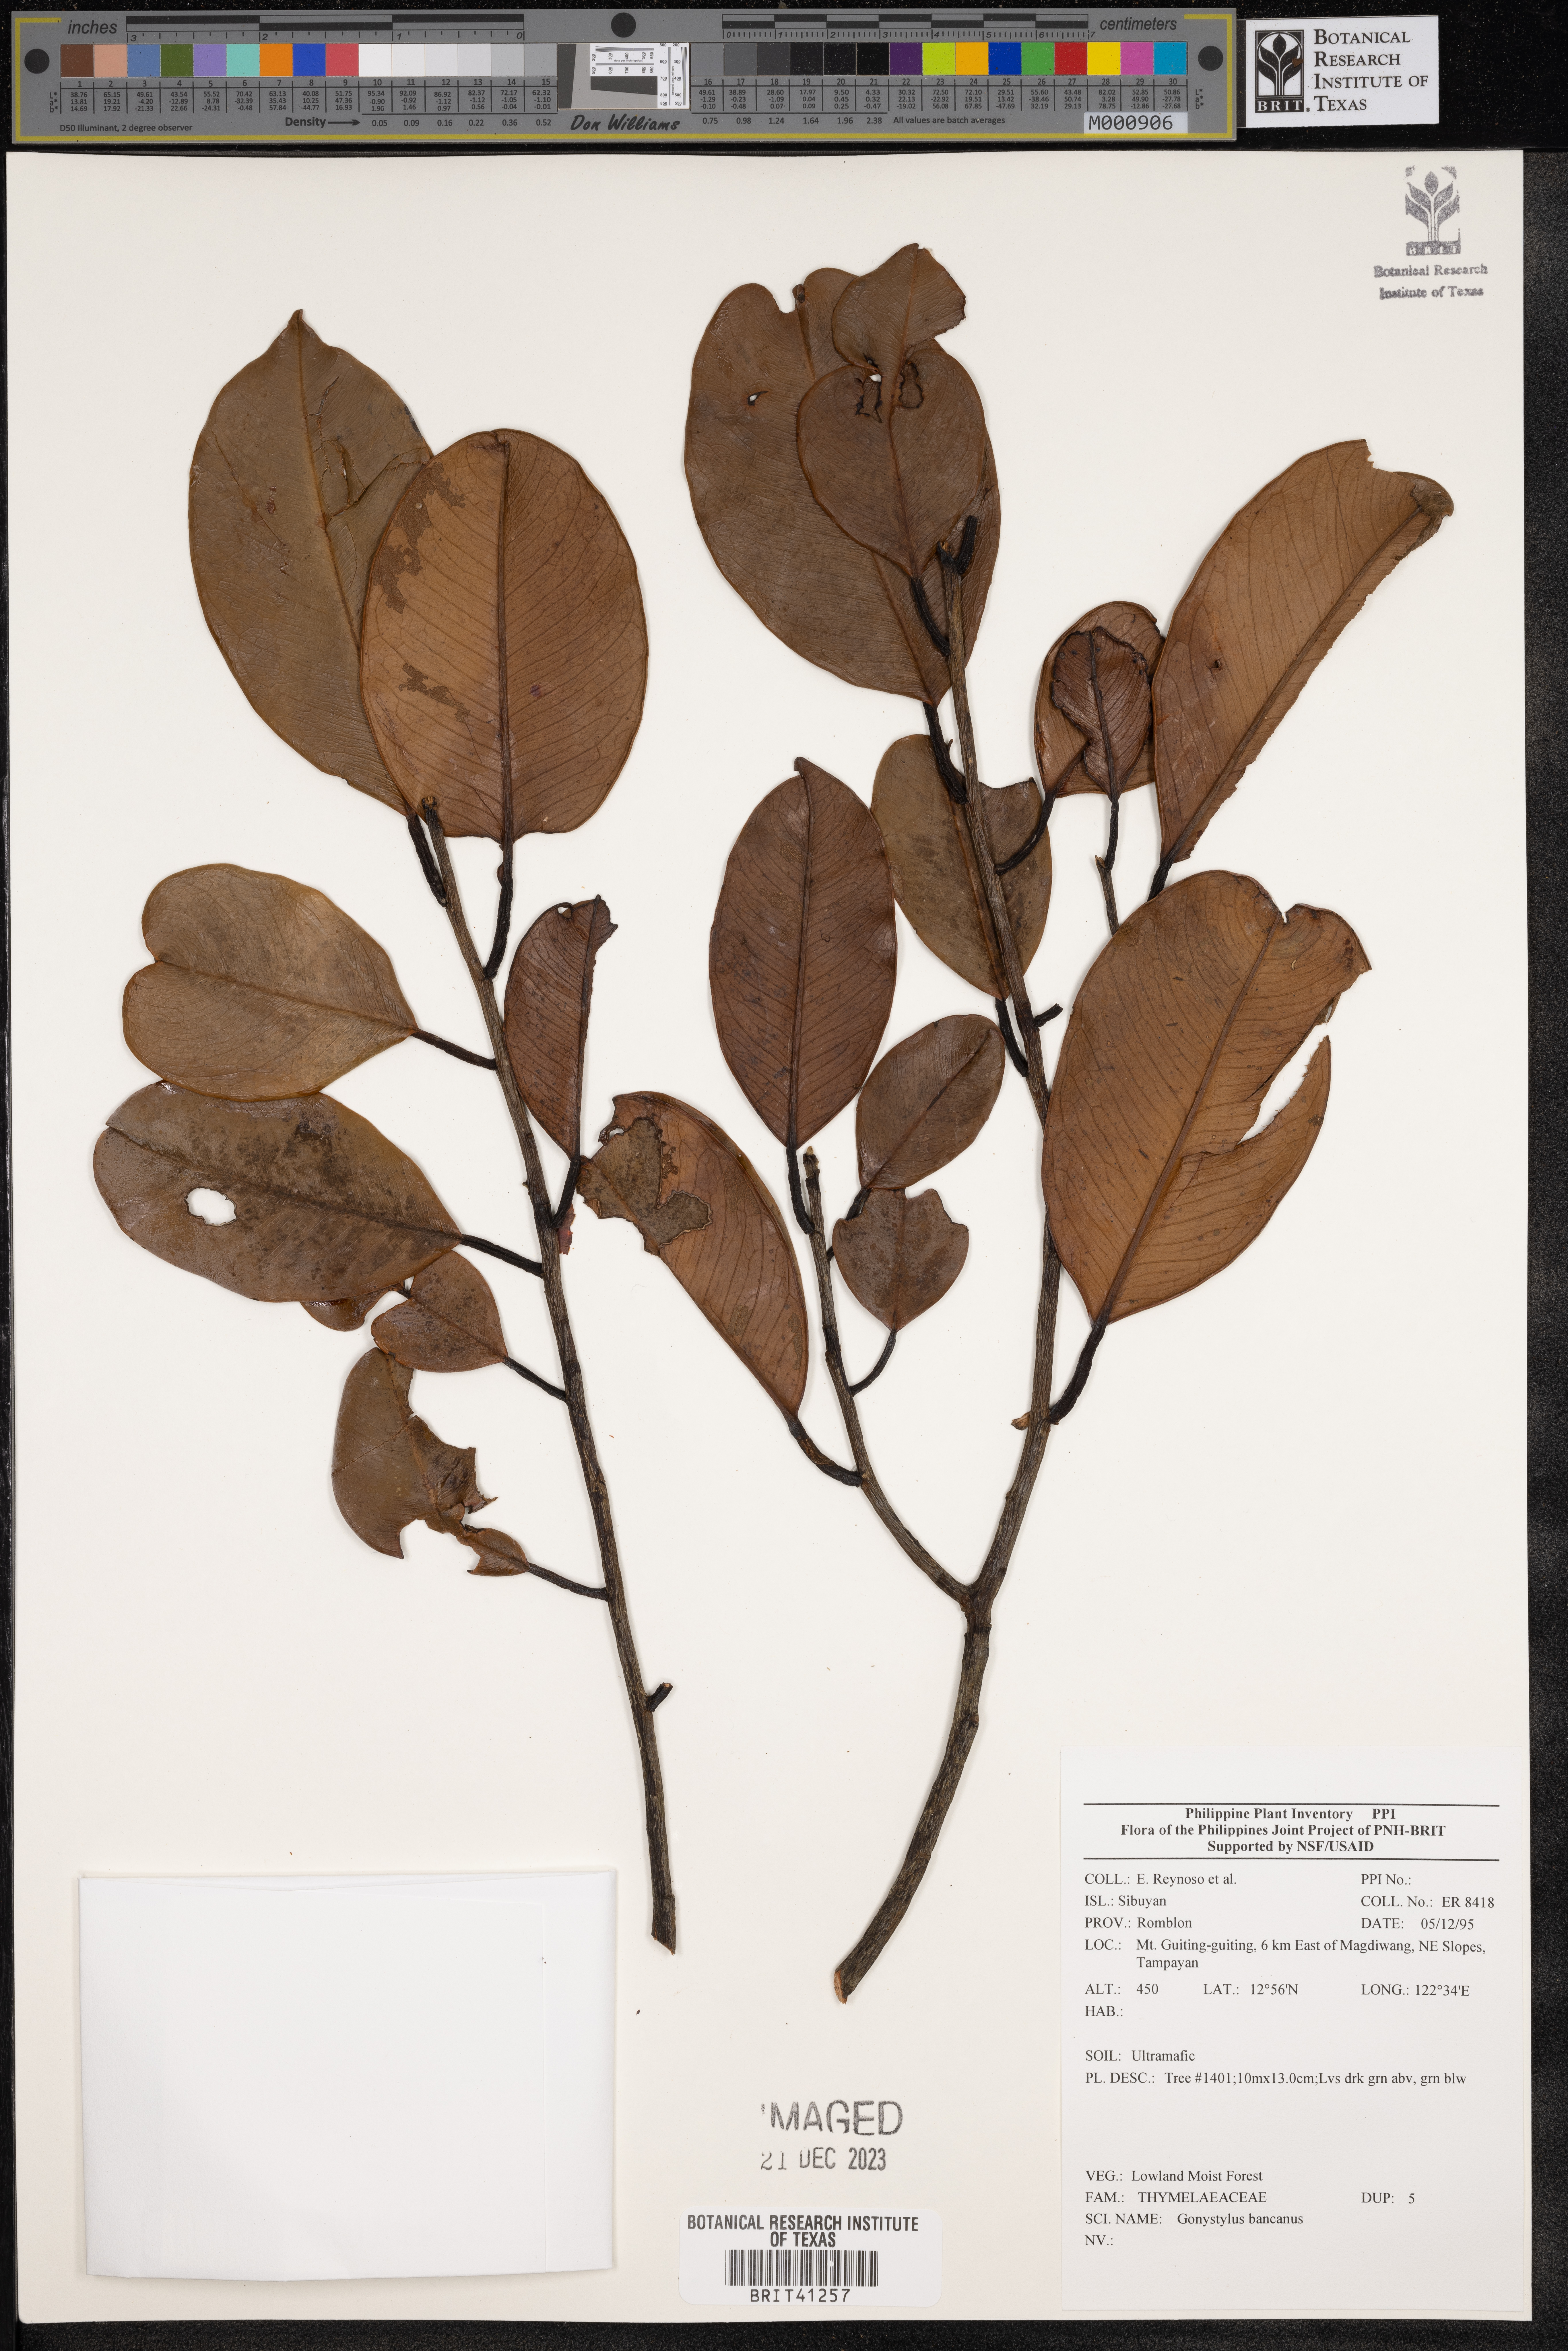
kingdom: Plantae
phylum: Tracheophyta
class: Magnoliopsida
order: Malvales
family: Thymelaeaceae
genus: Gonystylus
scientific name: Gonystylus bancanus
